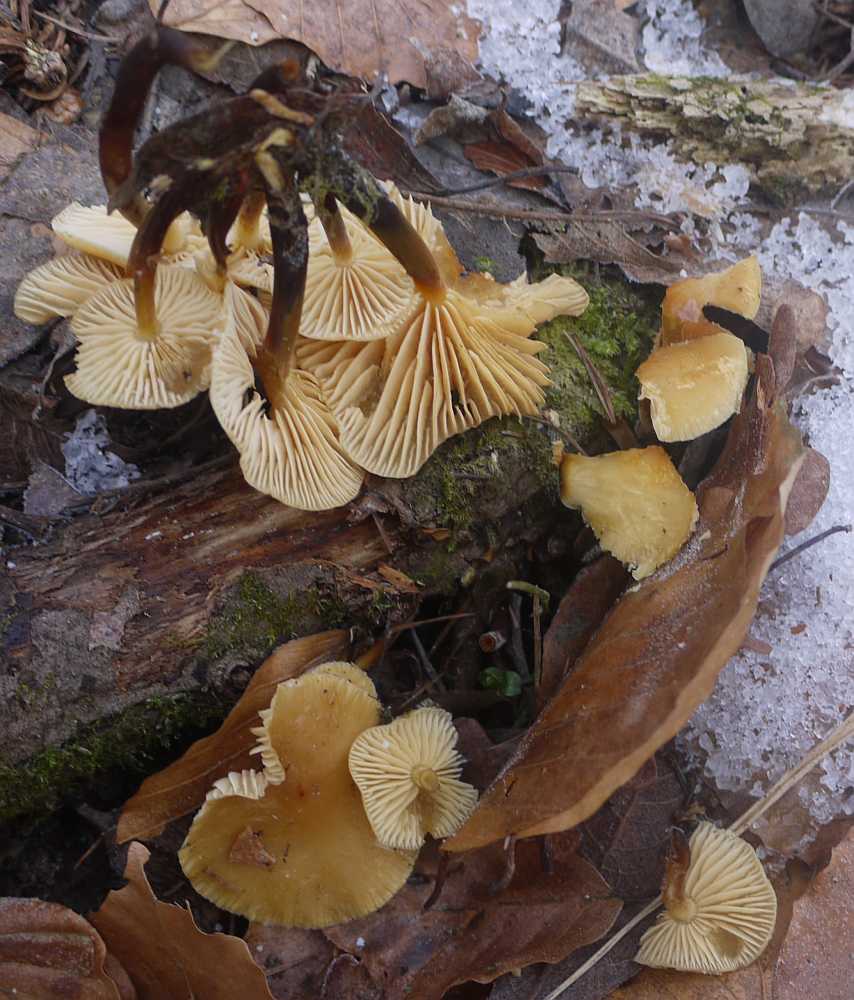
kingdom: Fungi
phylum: Basidiomycota
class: Agaricomycetes
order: Agaricales
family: Physalacriaceae
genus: Flammulina
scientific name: Flammulina elastica
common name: pile-fløjlsfod
